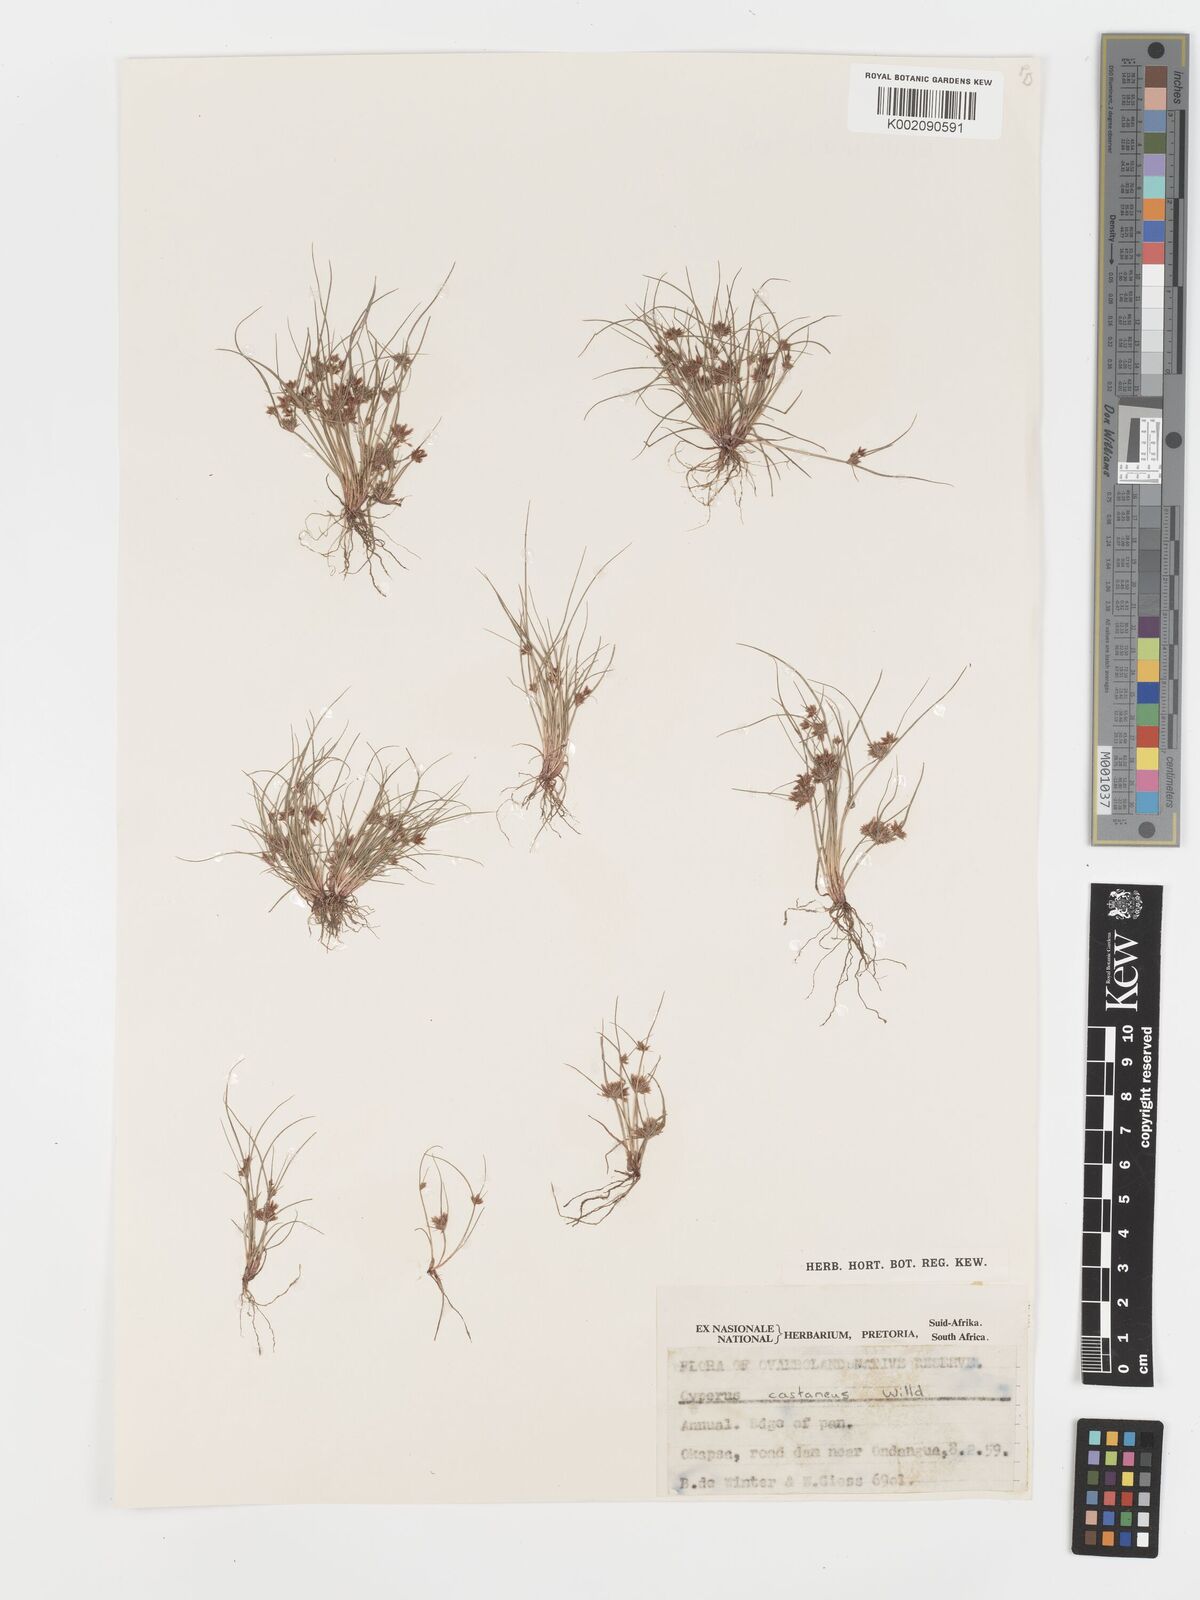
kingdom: Plantae
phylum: Tracheophyta
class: Liliopsida
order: Poales
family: Cyperaceae
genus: Cyperus
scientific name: Cyperus castaneus
